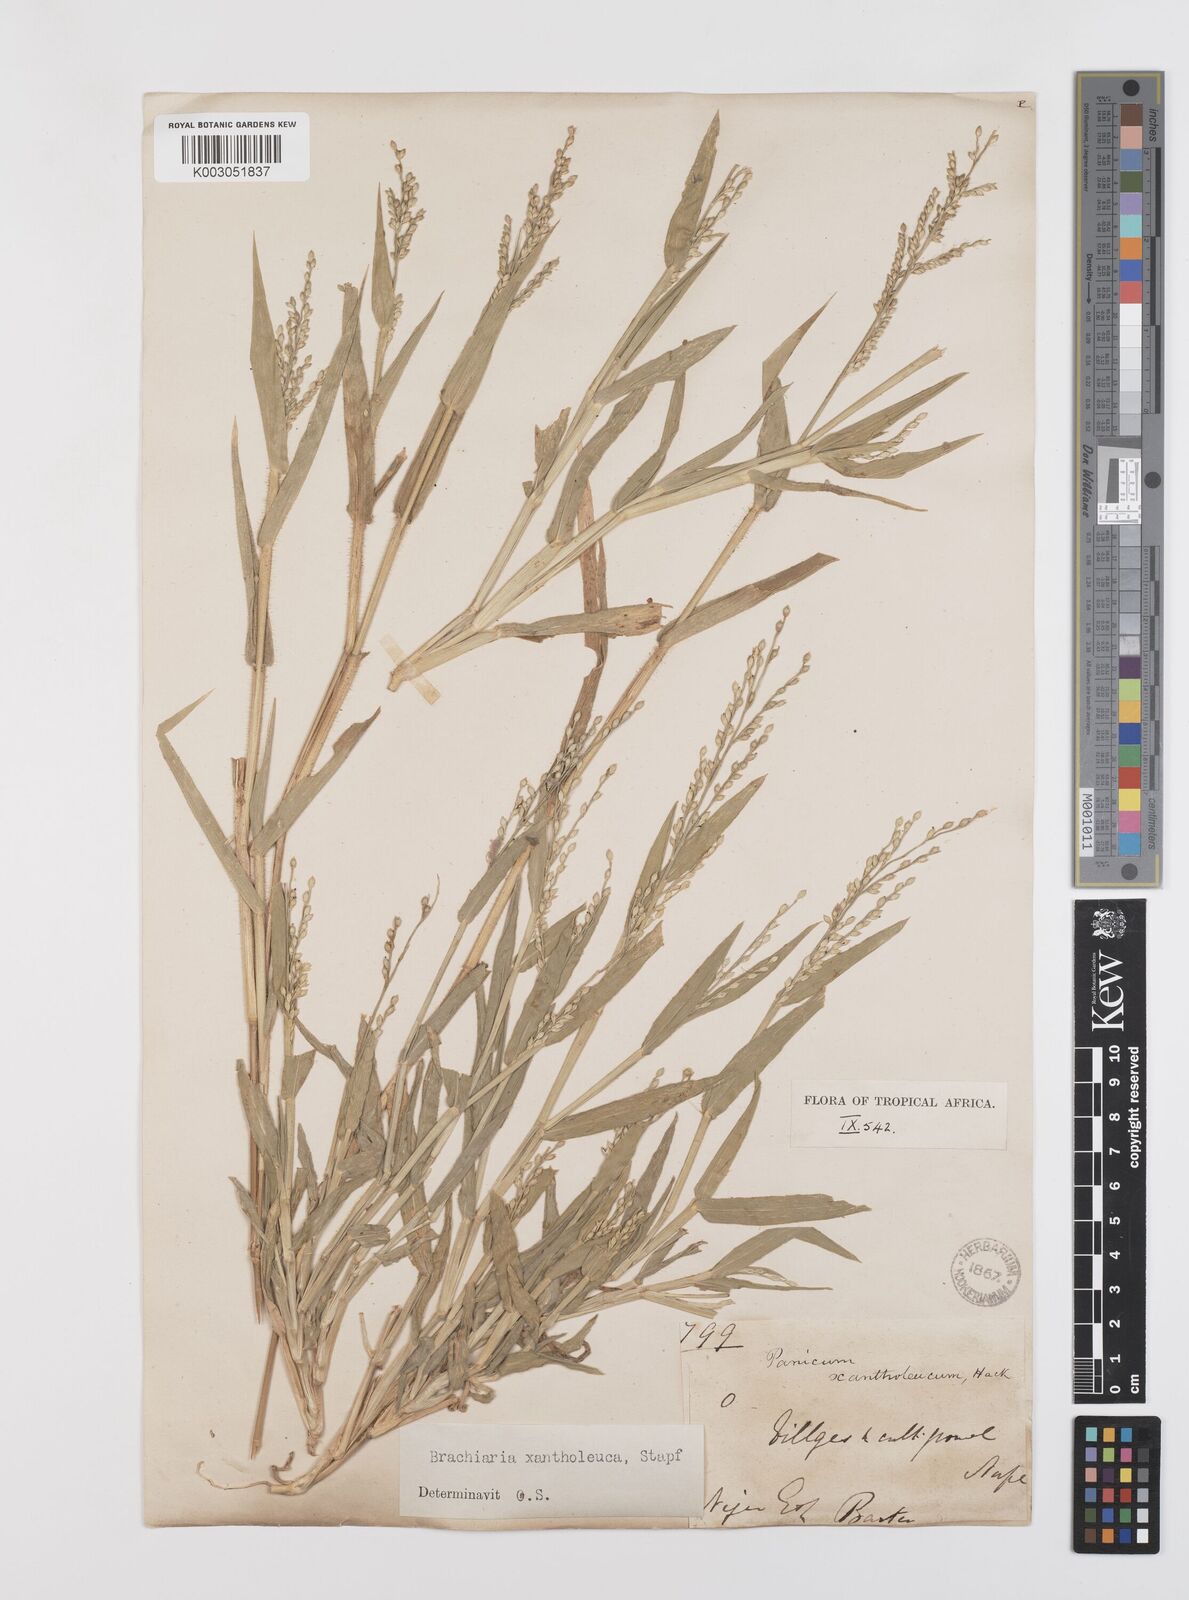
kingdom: Plantae
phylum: Tracheophyta
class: Liliopsida
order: Poales
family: Poaceae
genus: Urochloa
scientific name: Urochloa xantholeuca
